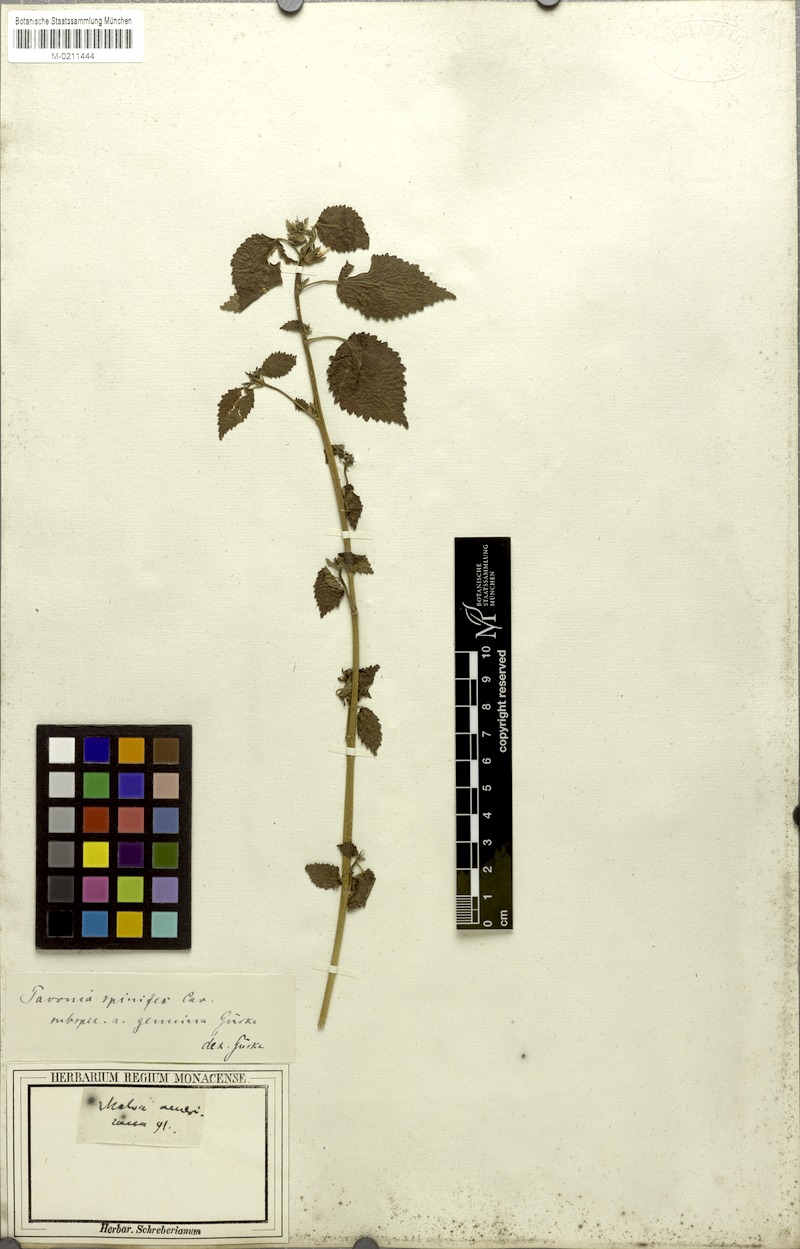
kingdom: Plantae
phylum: Tracheophyta
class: Magnoliopsida
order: Malvales
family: Malvaceae
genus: Pavonia
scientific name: Pavonia spinifex
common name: Ginger bush
